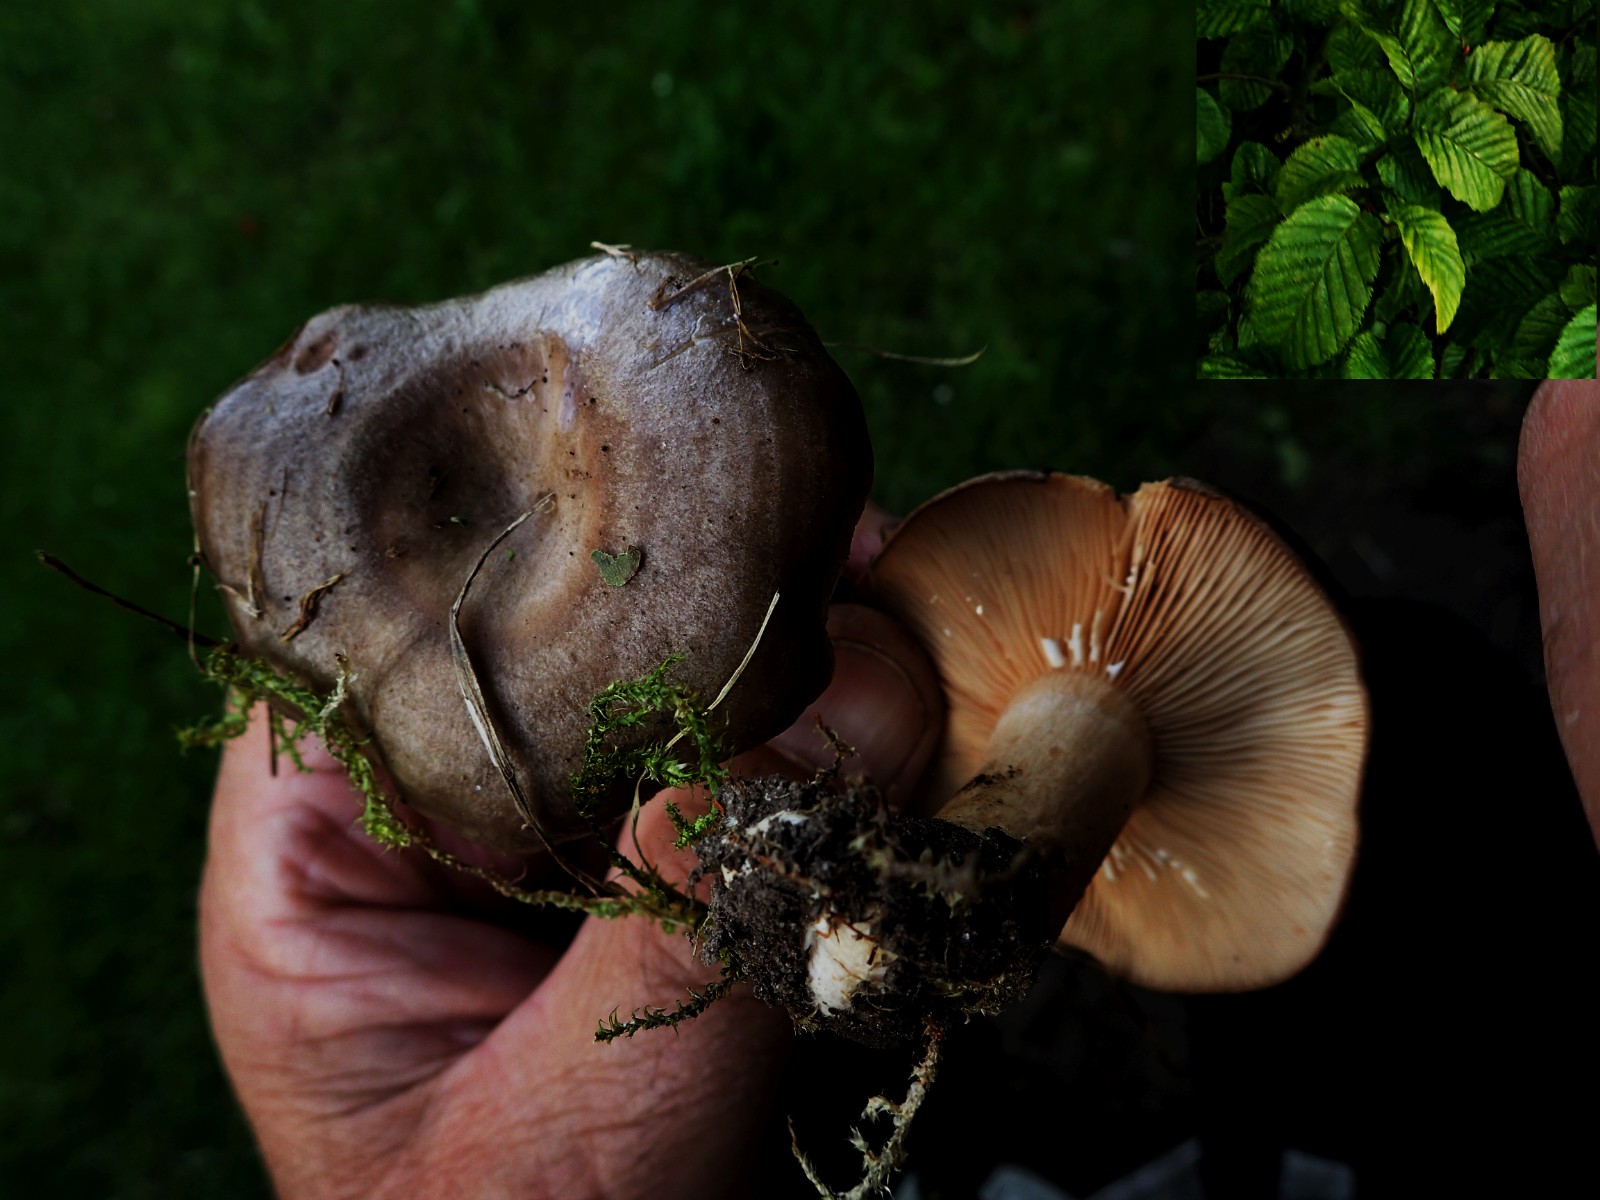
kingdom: Fungi
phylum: Basidiomycota
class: Agaricomycetes
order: Russulales
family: Russulaceae
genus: Lactarius
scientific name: Lactarius circellatus
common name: avnbøg-mælkehat
